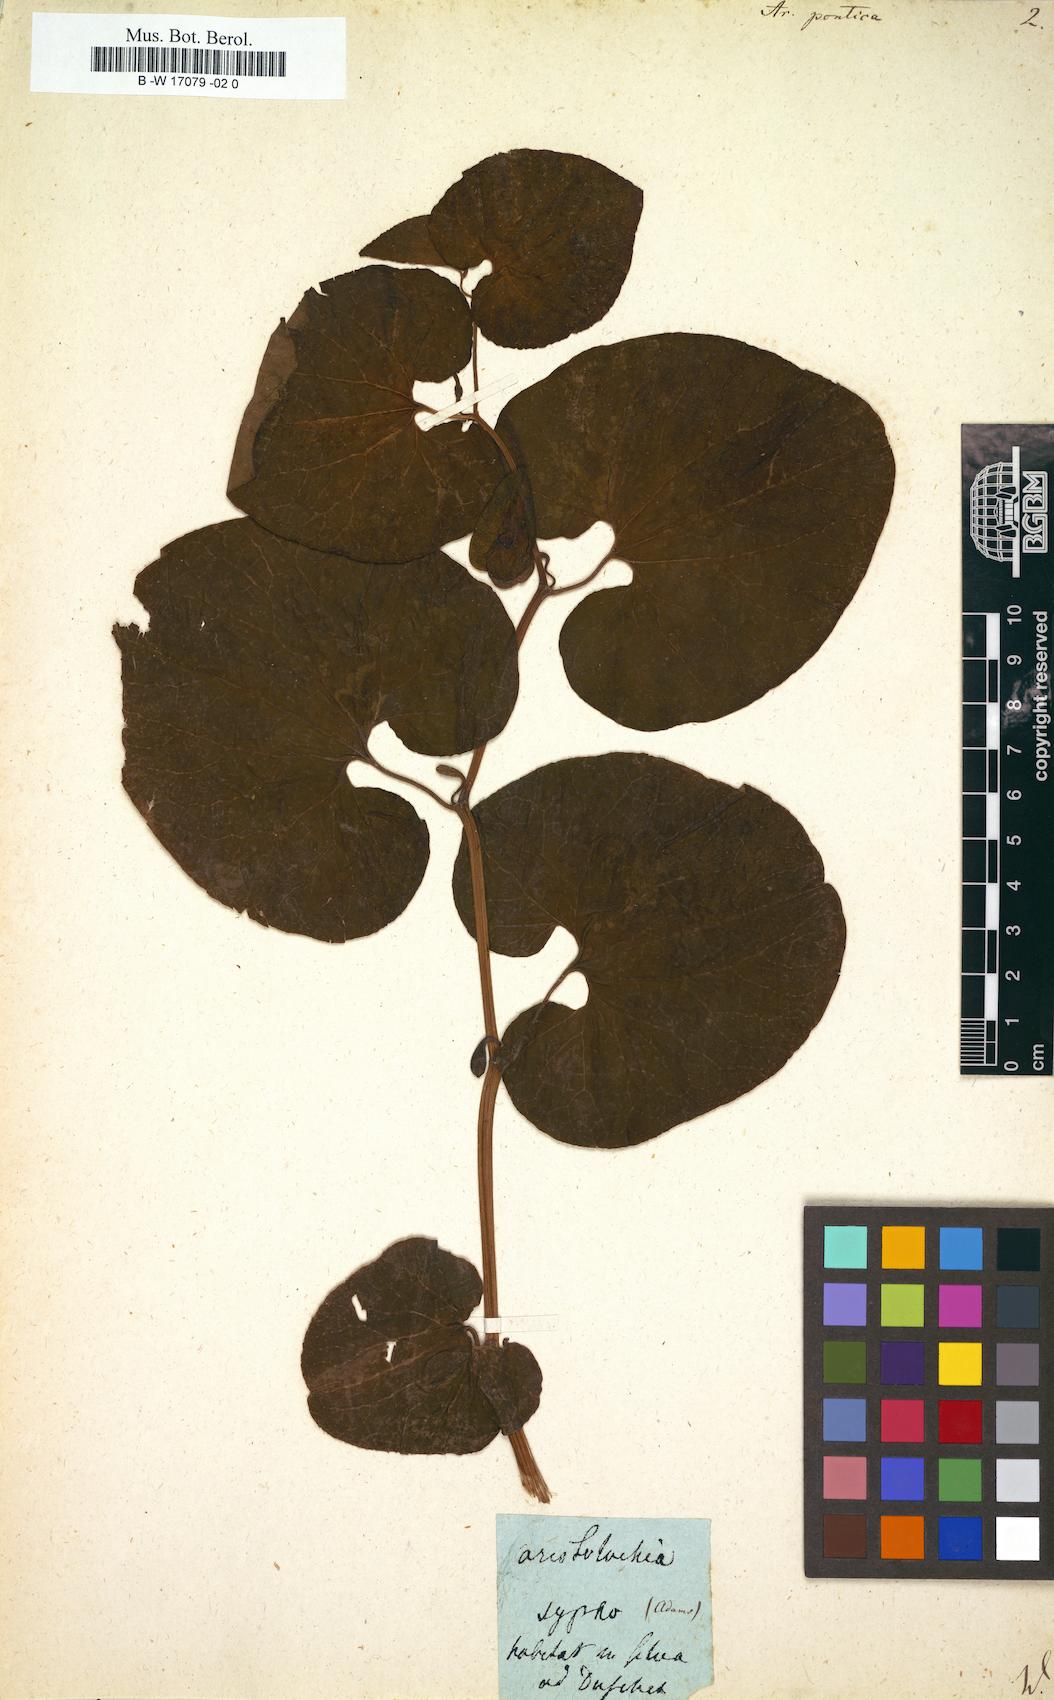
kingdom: Plantae
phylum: Tracheophyta
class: Magnoliopsida
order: Piperales
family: Aristolochiaceae
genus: Aristolochia
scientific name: Aristolochia pontica
